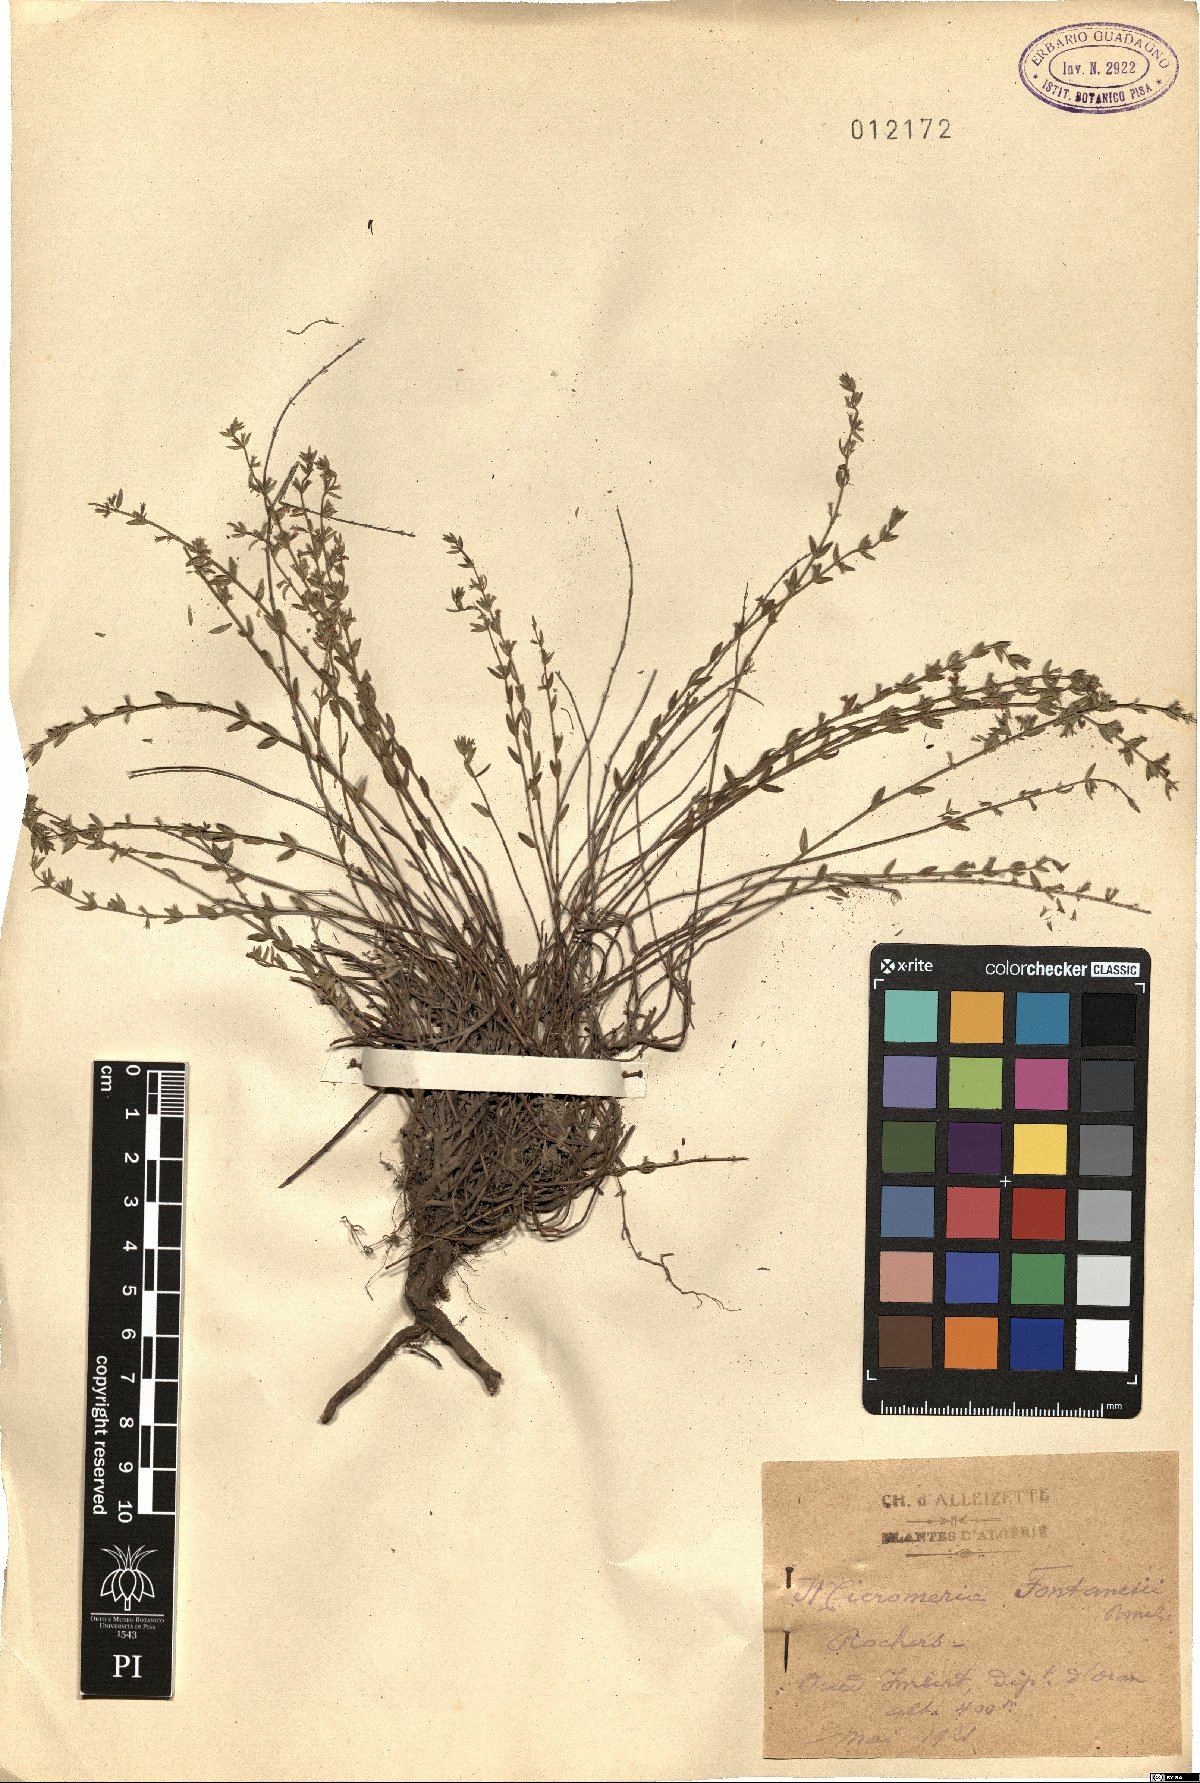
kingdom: Plantae
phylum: Tracheophyta
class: Magnoliopsida
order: Lamiales
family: Lamiaceae
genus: Micromeria
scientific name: Micromeria fontanesii
